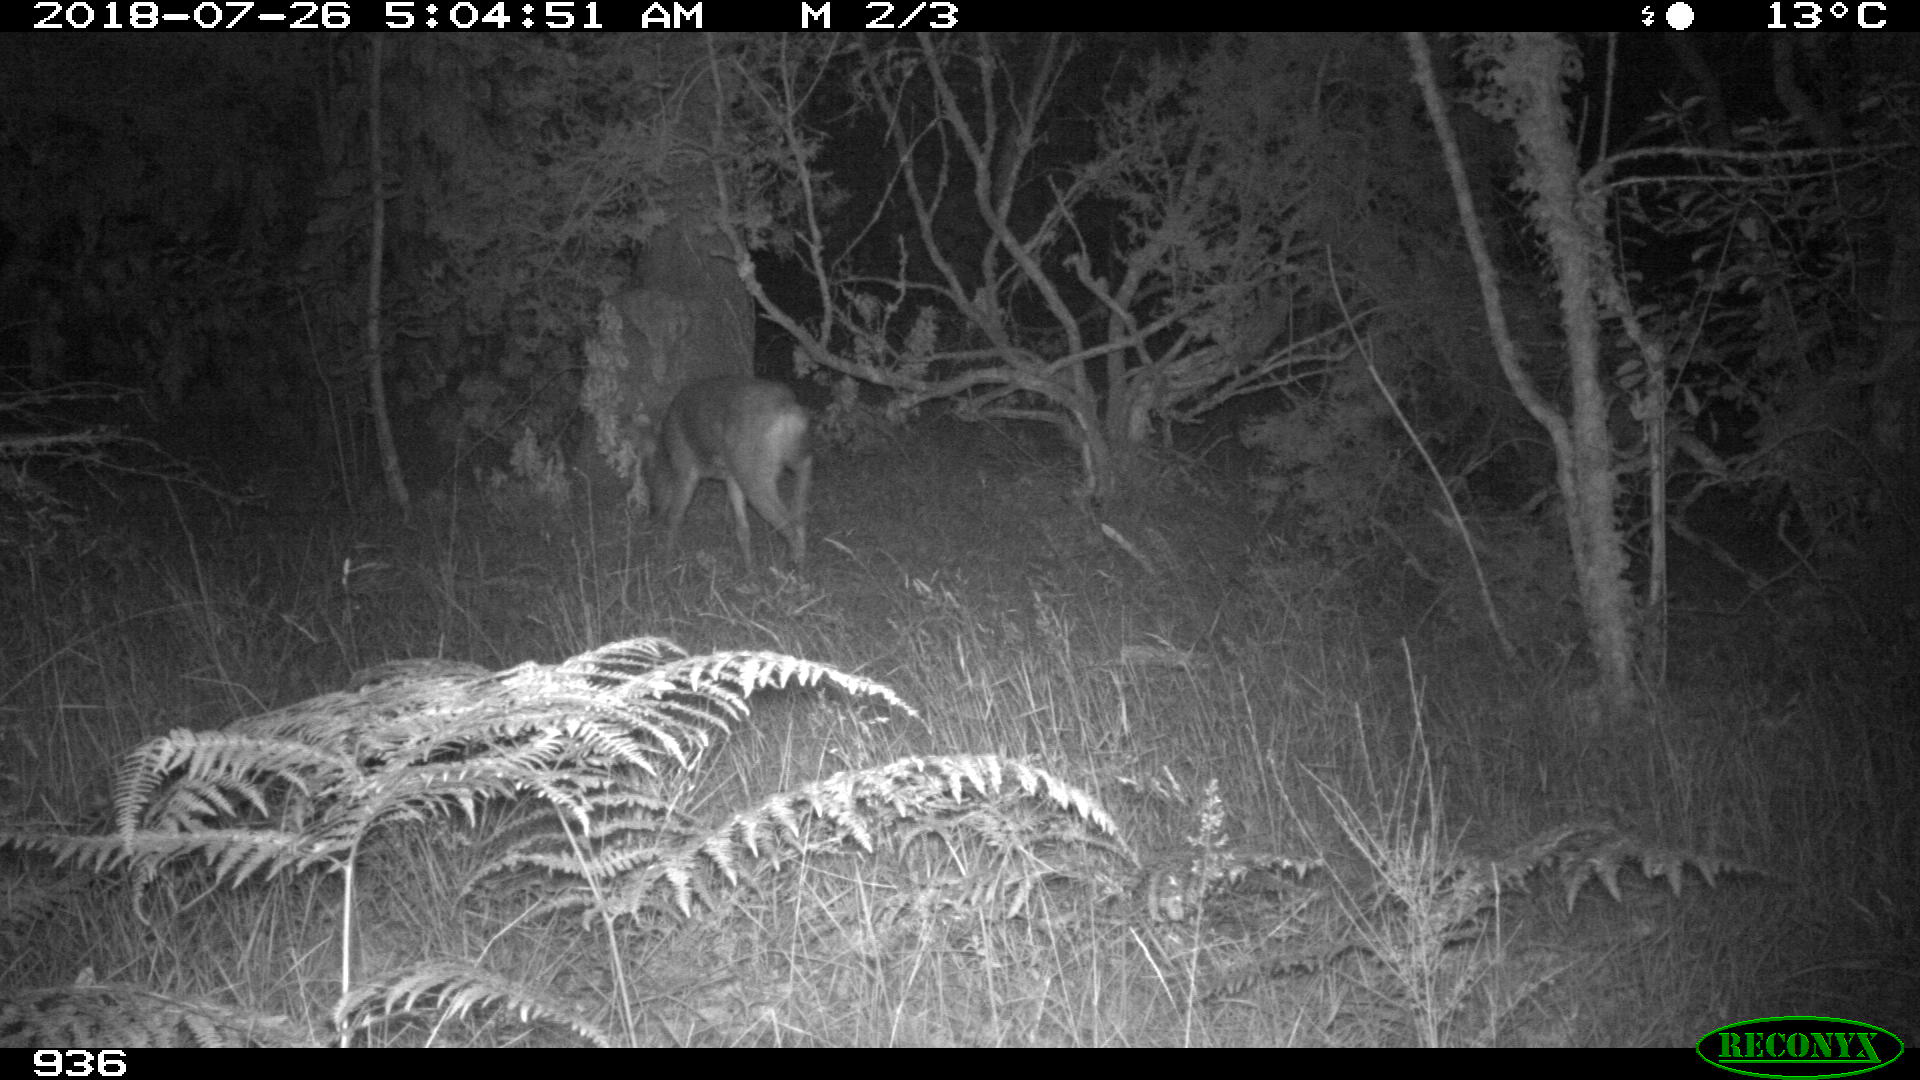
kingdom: Animalia
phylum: Chordata
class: Mammalia
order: Artiodactyla
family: Cervidae
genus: Capreolus
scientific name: Capreolus capreolus
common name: Western roe deer
